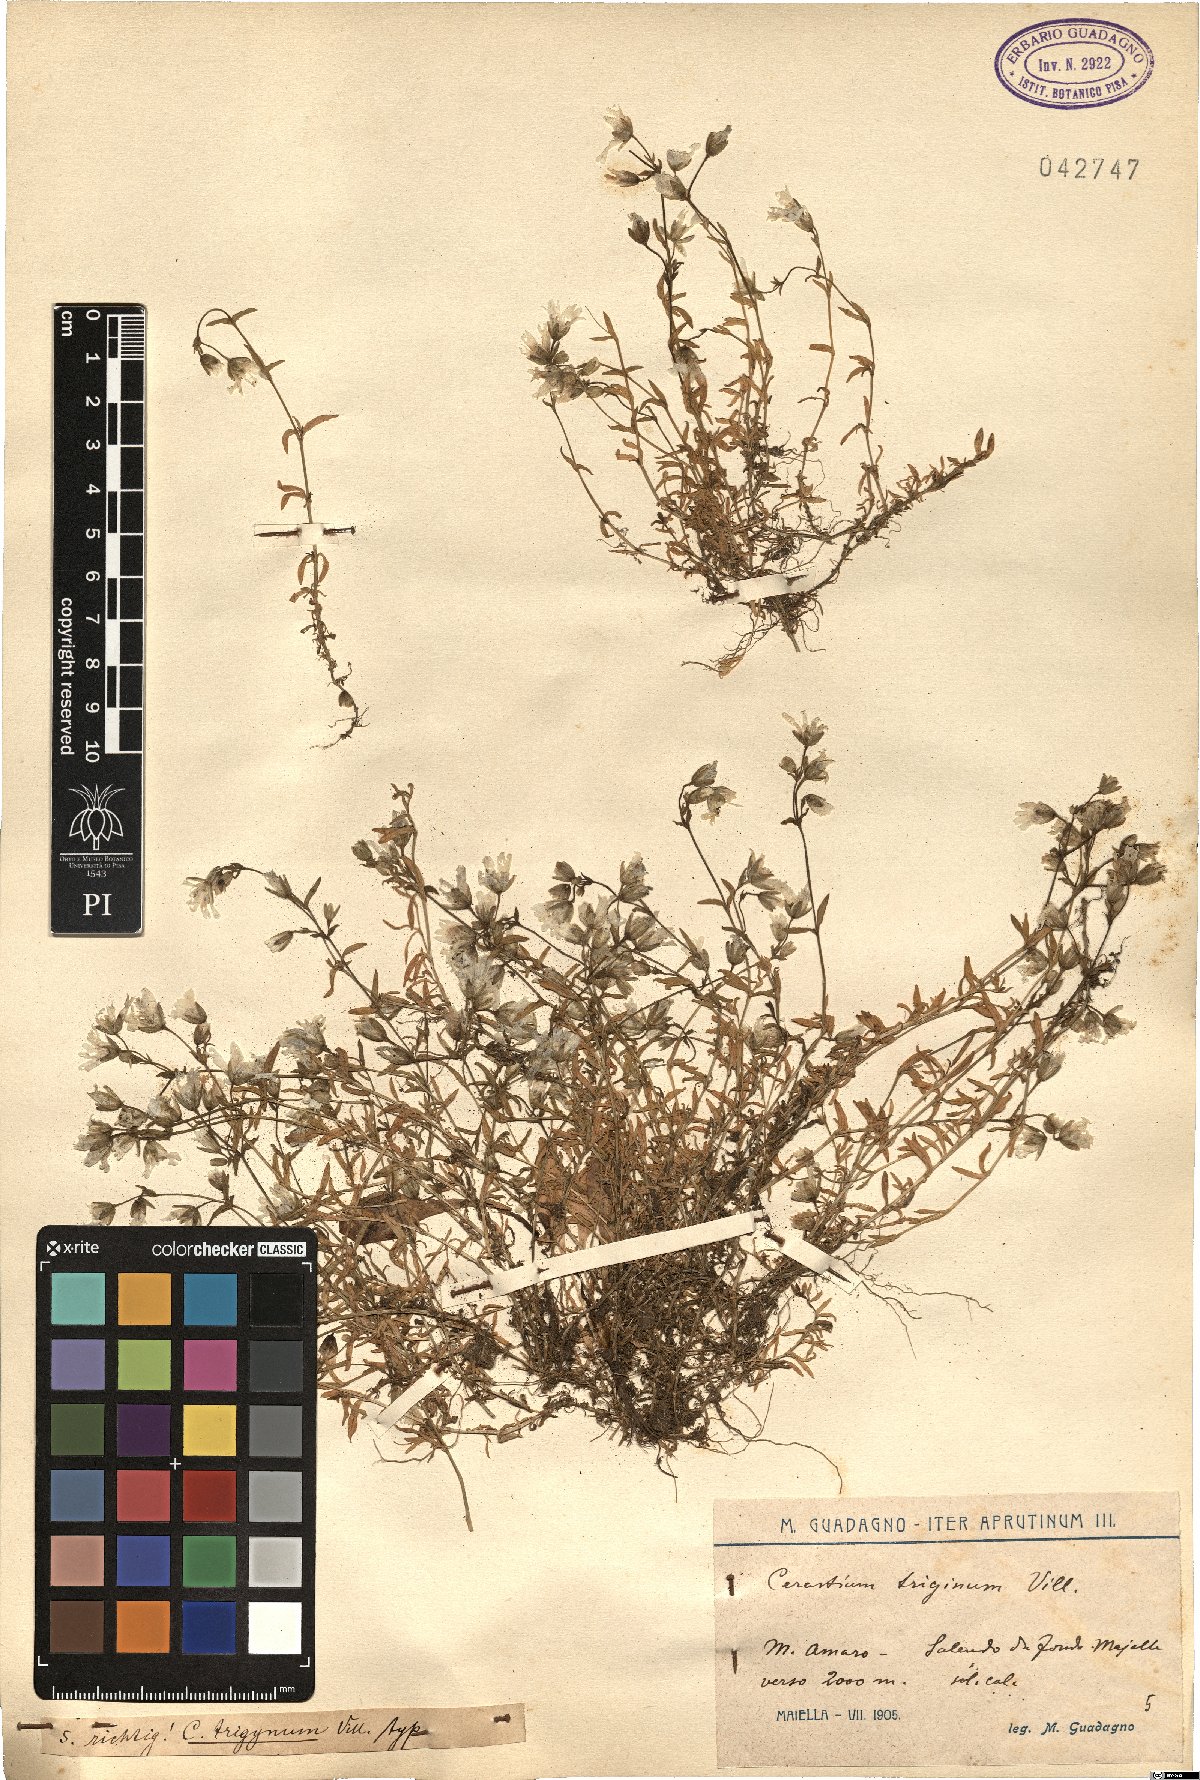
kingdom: Plantae
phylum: Tracheophyta
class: Magnoliopsida
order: Caryophyllales
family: Caryophyllaceae
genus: Dichodon
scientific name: Dichodon cerastoides
